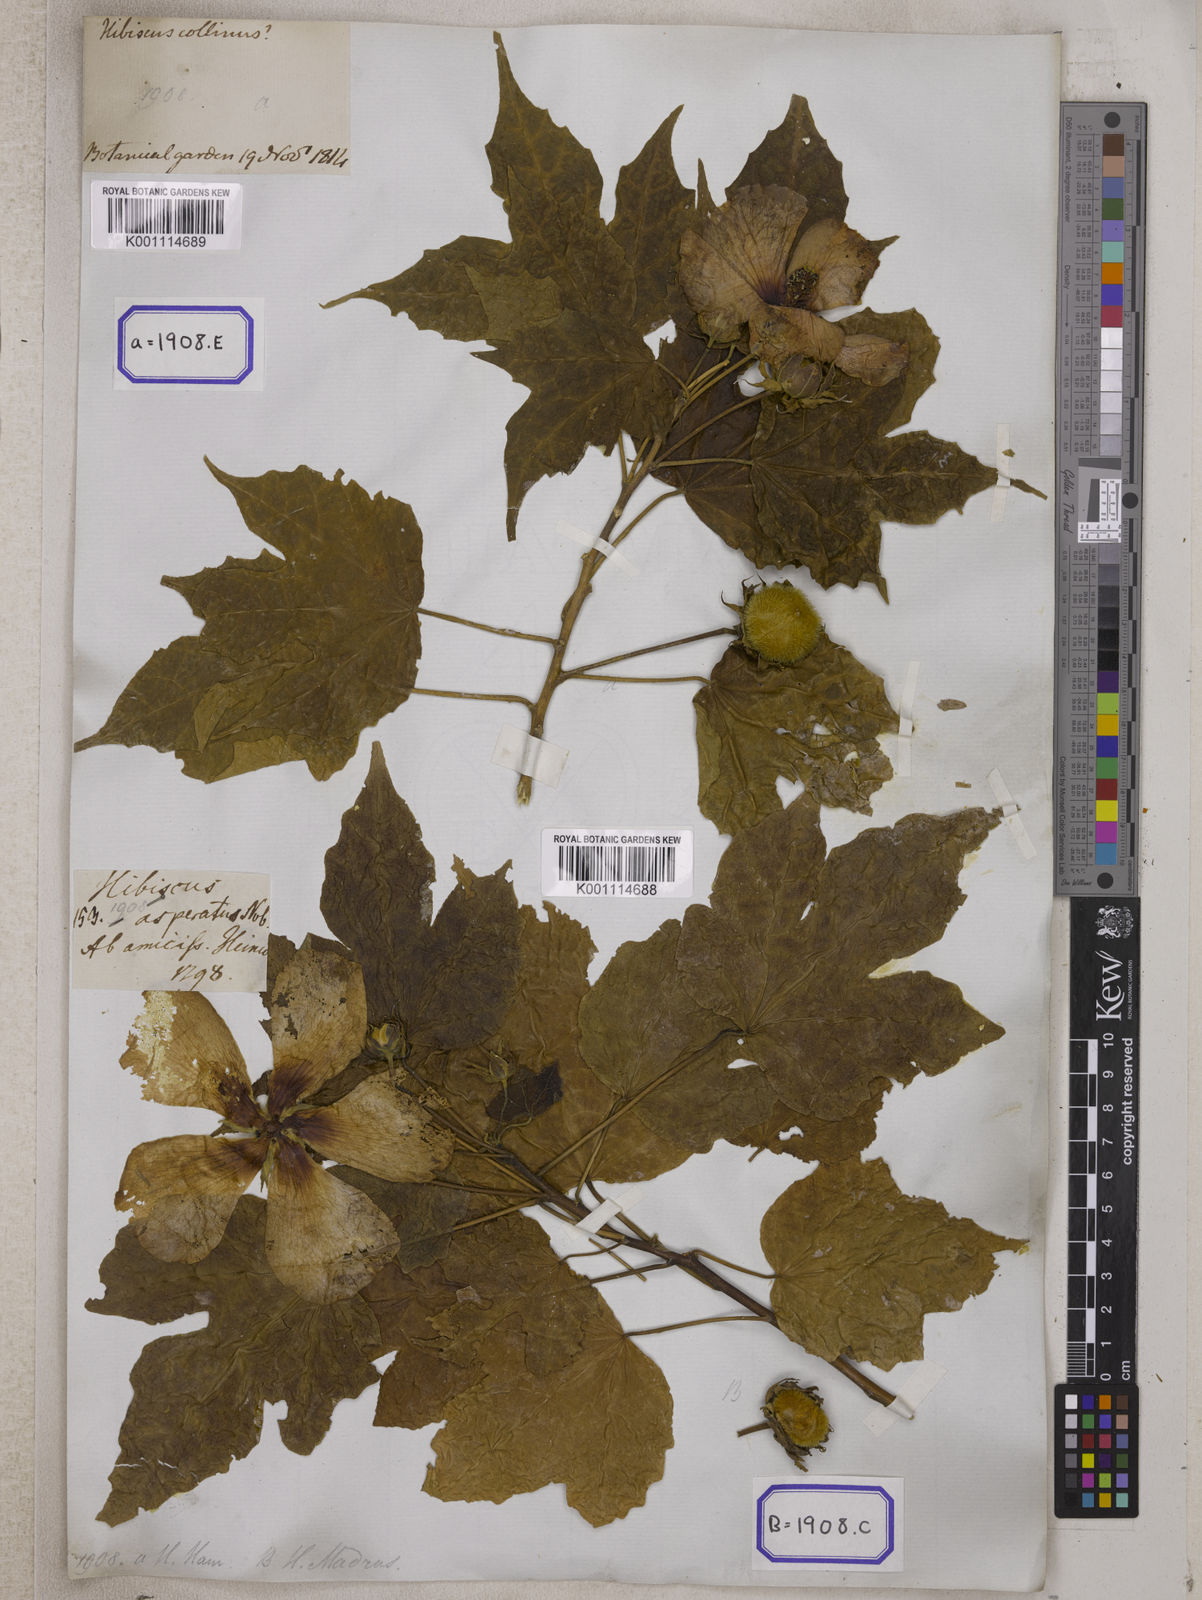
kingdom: Plantae
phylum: Tracheophyta
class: Magnoliopsida
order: Malvales
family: Malvaceae
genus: Hibiscus
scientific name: Hibiscus
